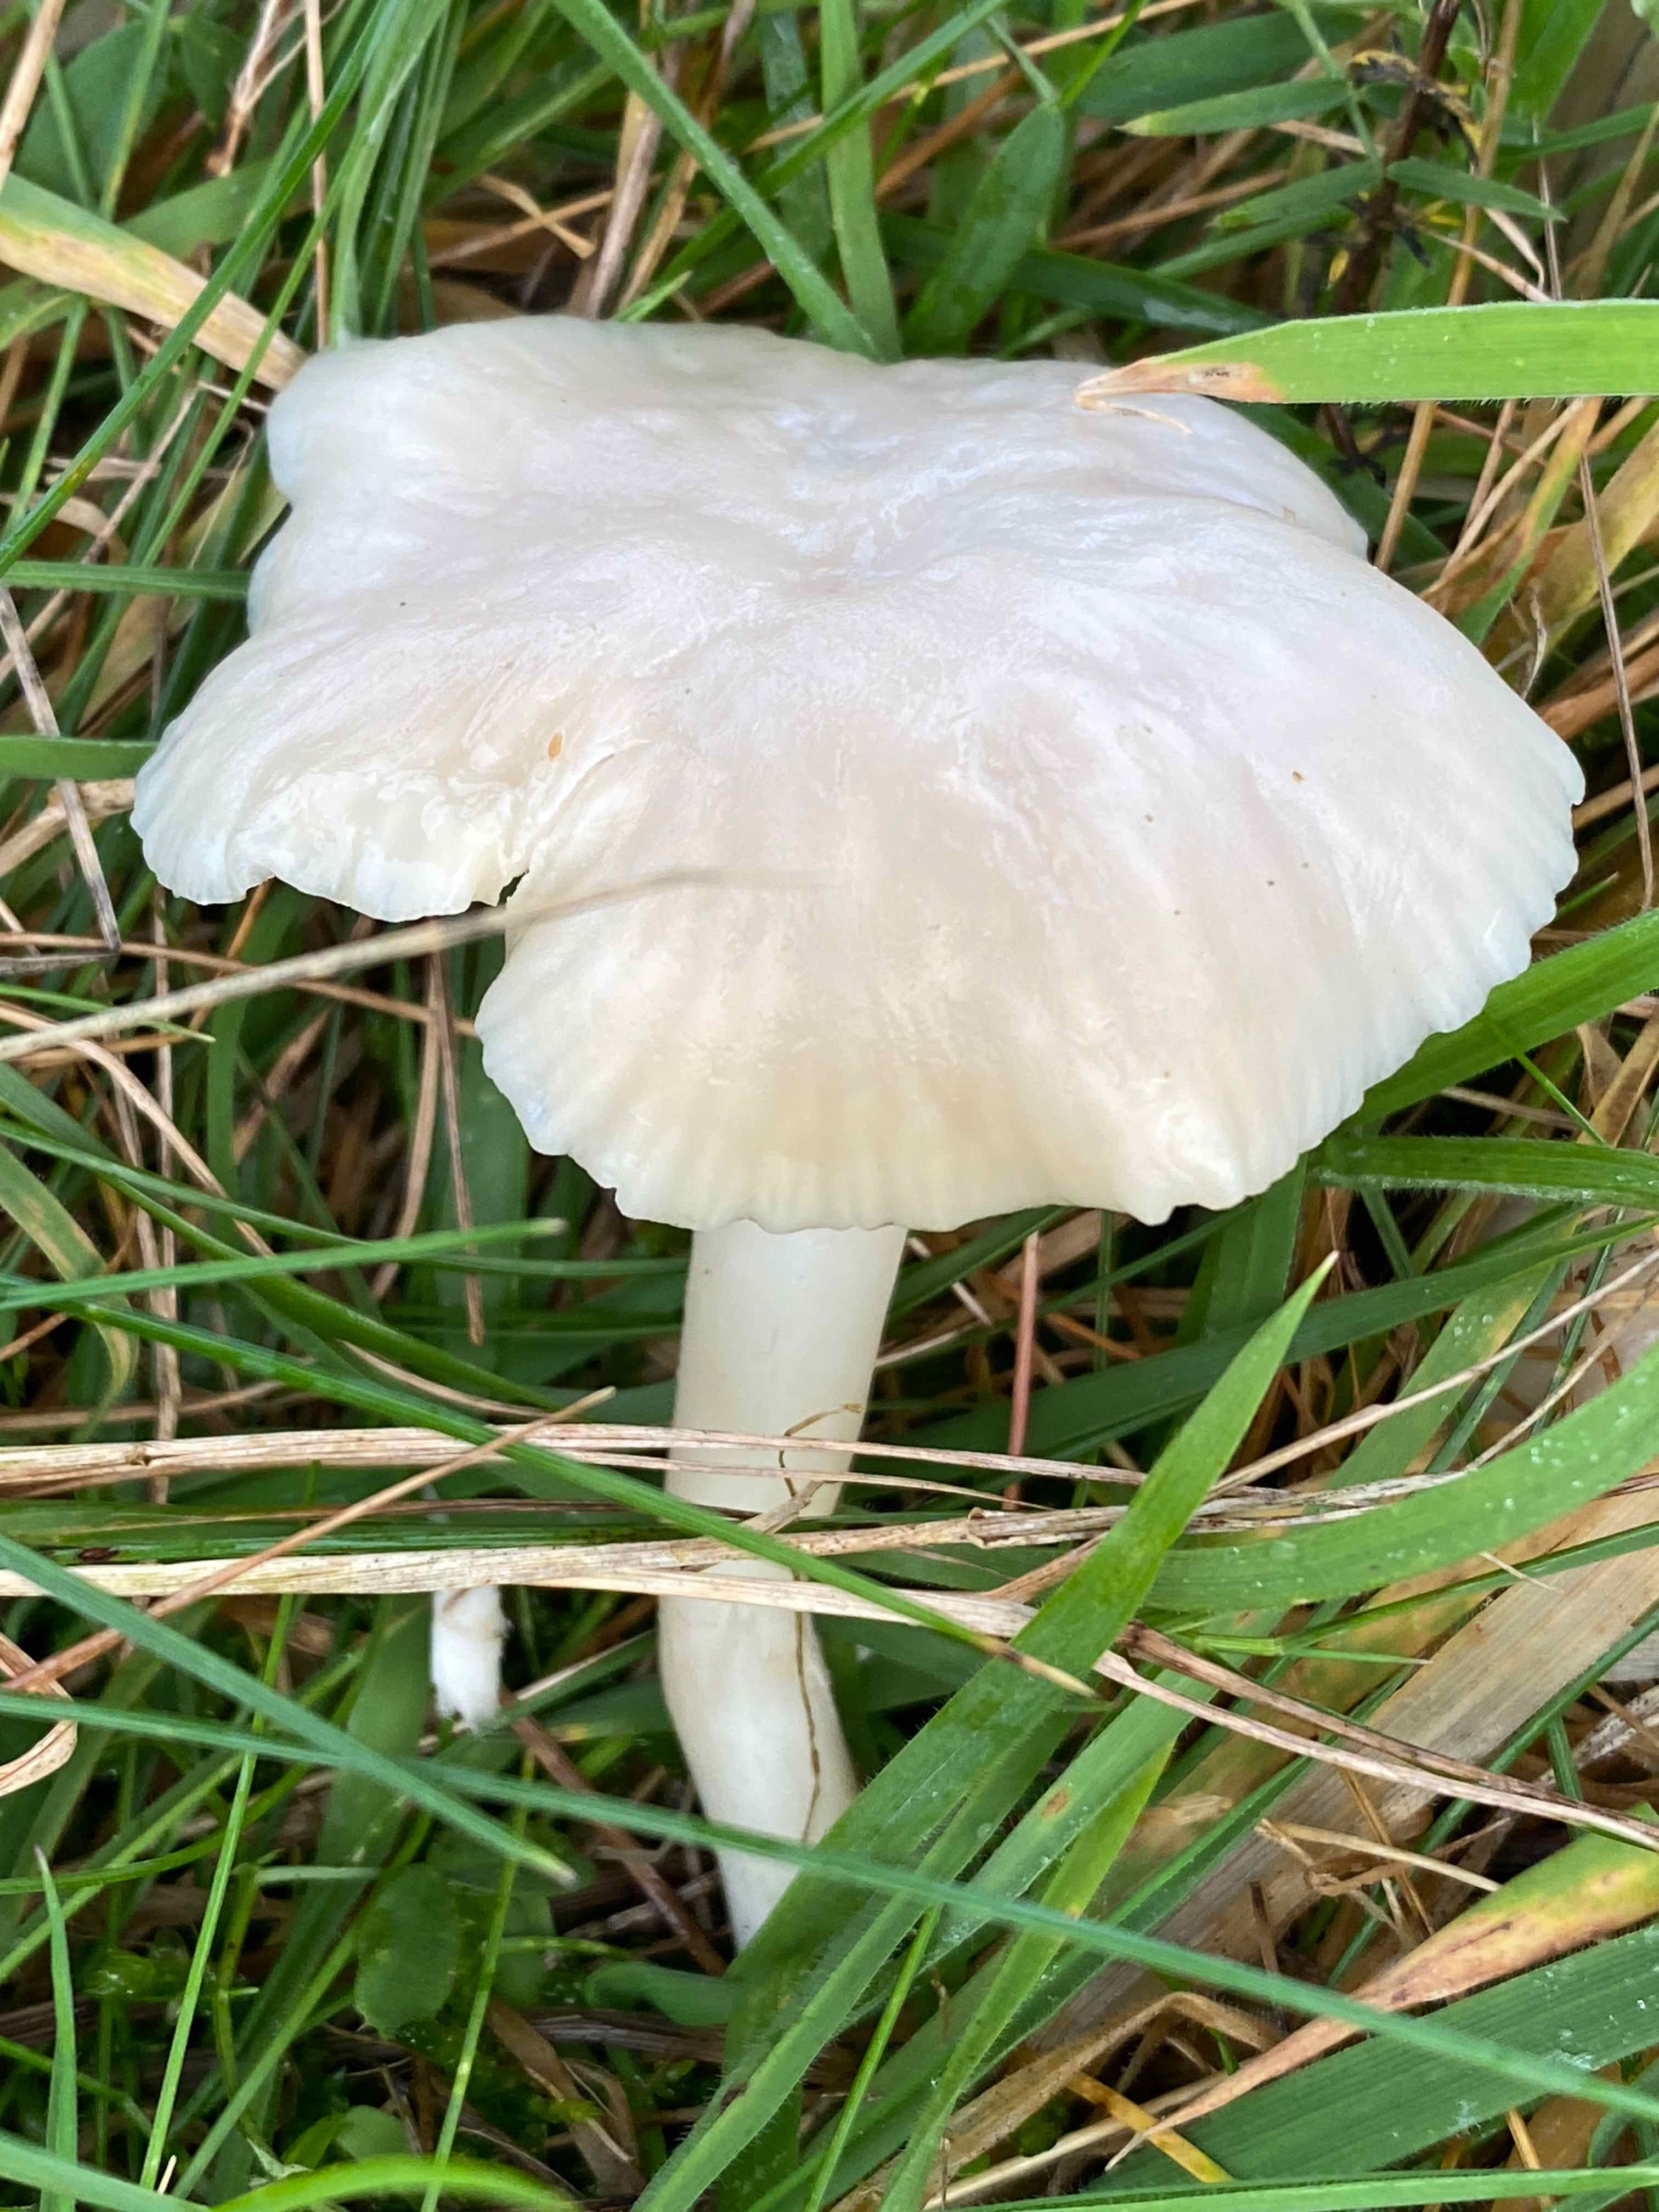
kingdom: Fungi
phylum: Basidiomycota
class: Agaricomycetes
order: Agaricales
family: Hygrophoraceae
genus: Cuphophyllus
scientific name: Cuphophyllus virgineus
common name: snehvid vokshat
